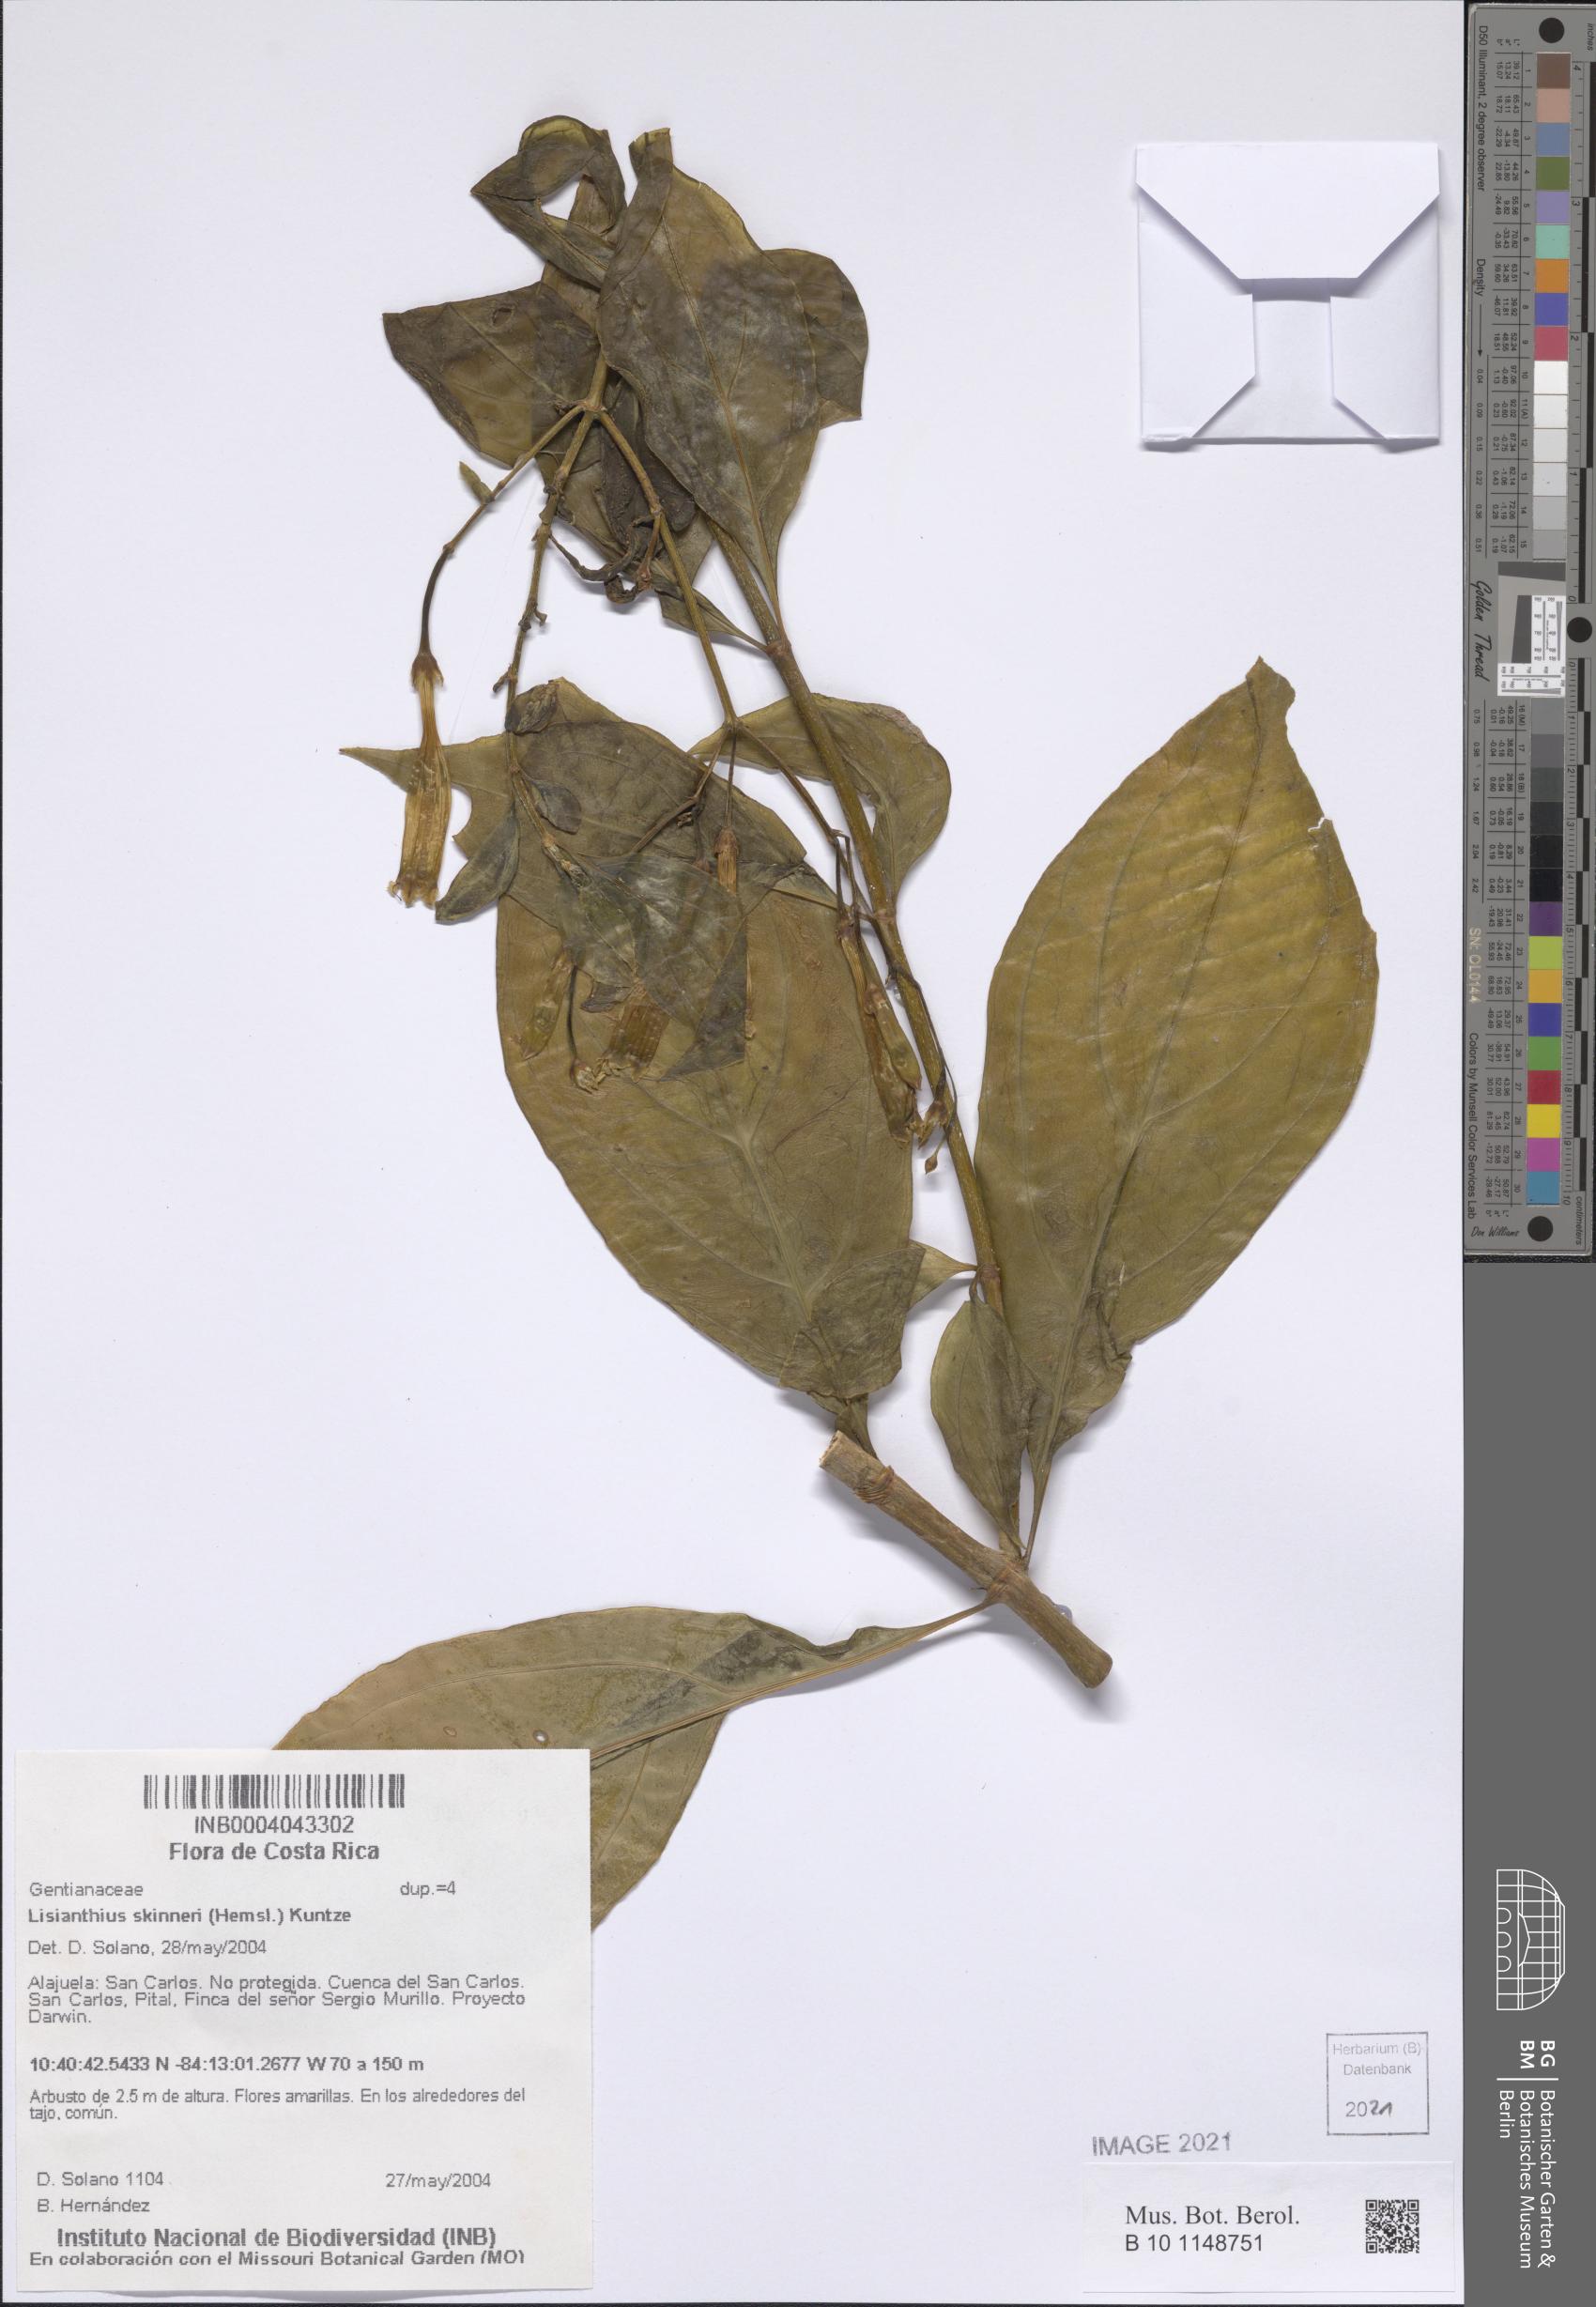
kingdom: Plantae
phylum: Tracheophyta
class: Magnoliopsida
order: Gentianales
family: Gentianaceae
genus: Lisianthus
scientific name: Lisianthus skinneri
